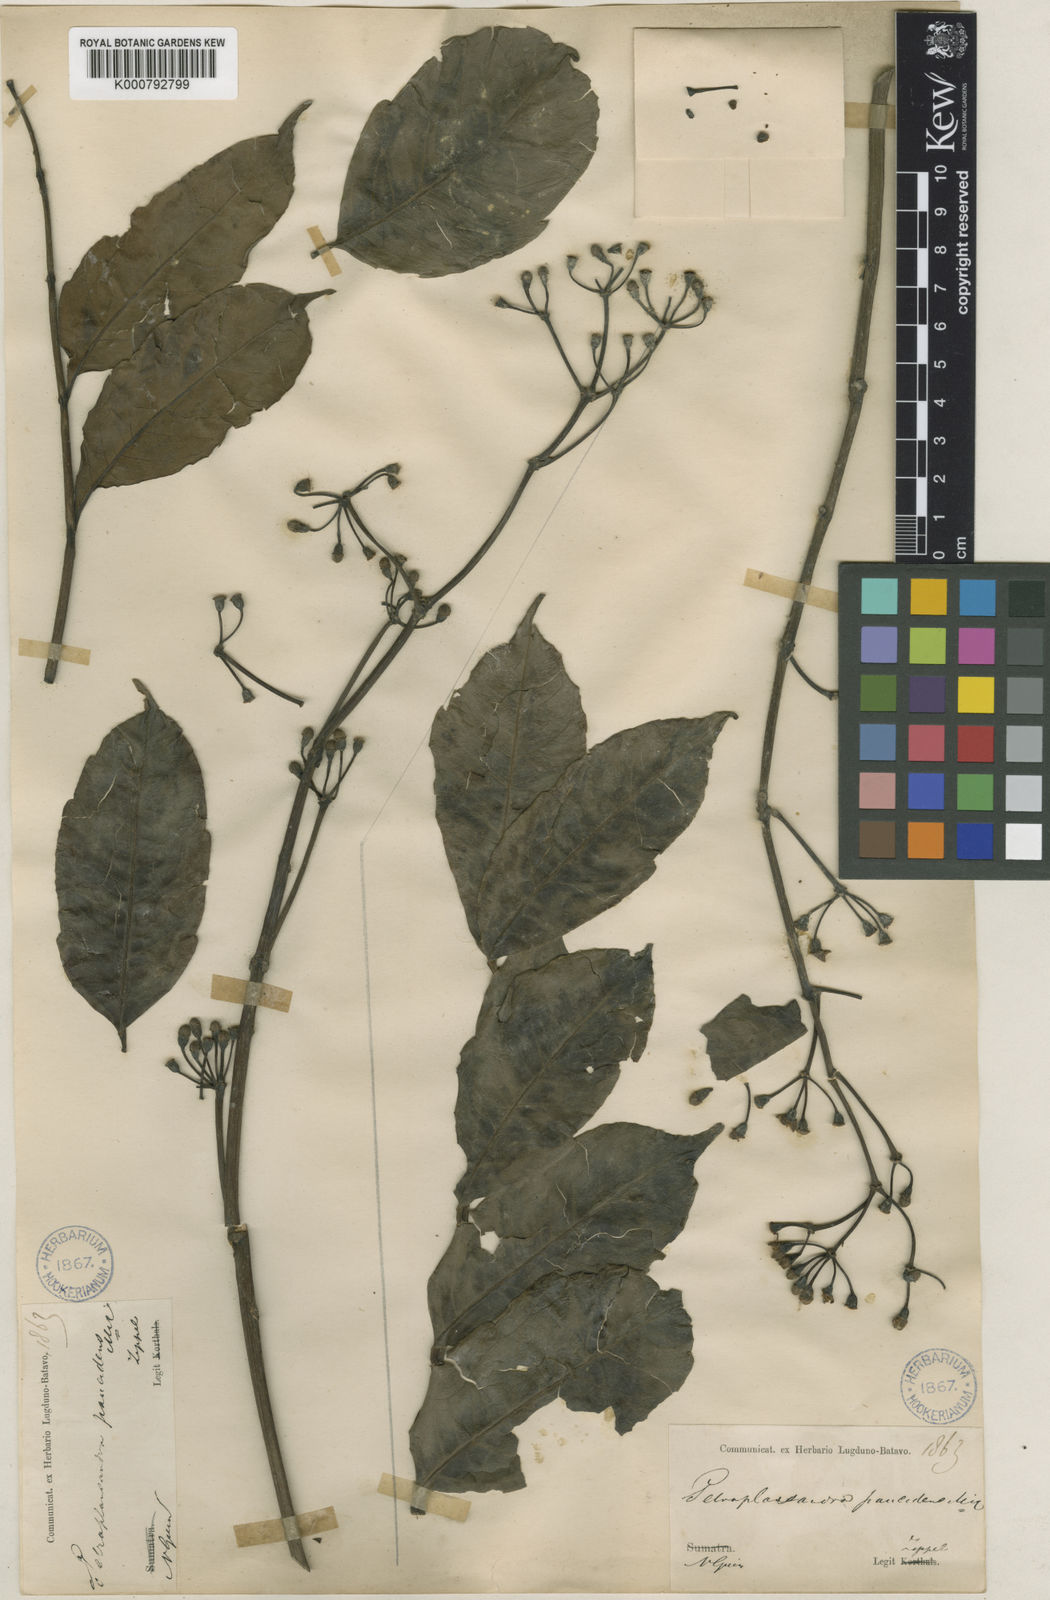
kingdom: Plantae
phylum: Tracheophyta
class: Magnoliopsida
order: Apiales
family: Araliaceae
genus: Polyscias
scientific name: Polyscias serratifolia
